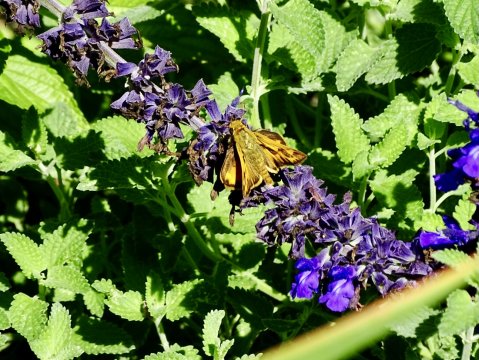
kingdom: Animalia
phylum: Arthropoda
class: Insecta
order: Lepidoptera
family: Hesperiidae
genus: Hylephila
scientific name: Hylephila phyleus
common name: Fiery Skipper
